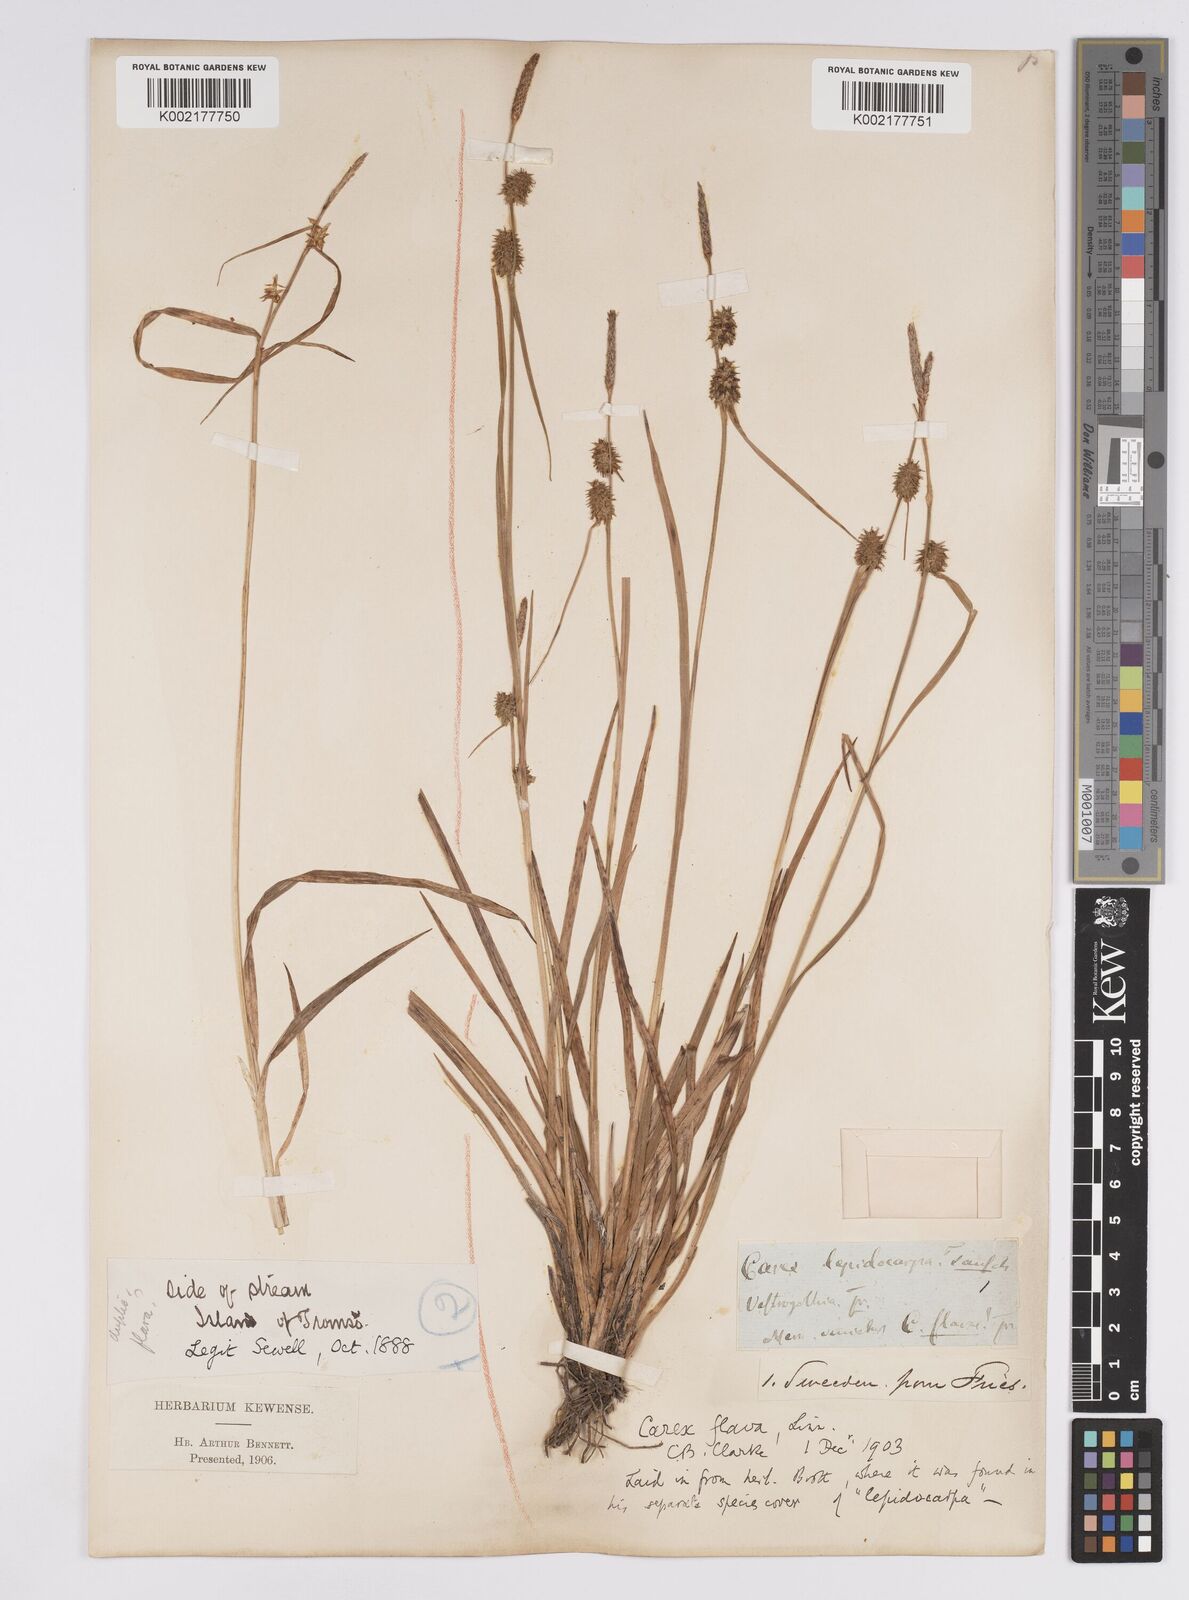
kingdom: Plantae
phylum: Tracheophyta
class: Liliopsida
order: Poales
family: Cyperaceae
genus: Carex
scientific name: Carex flava
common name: Large yellow-sedge
